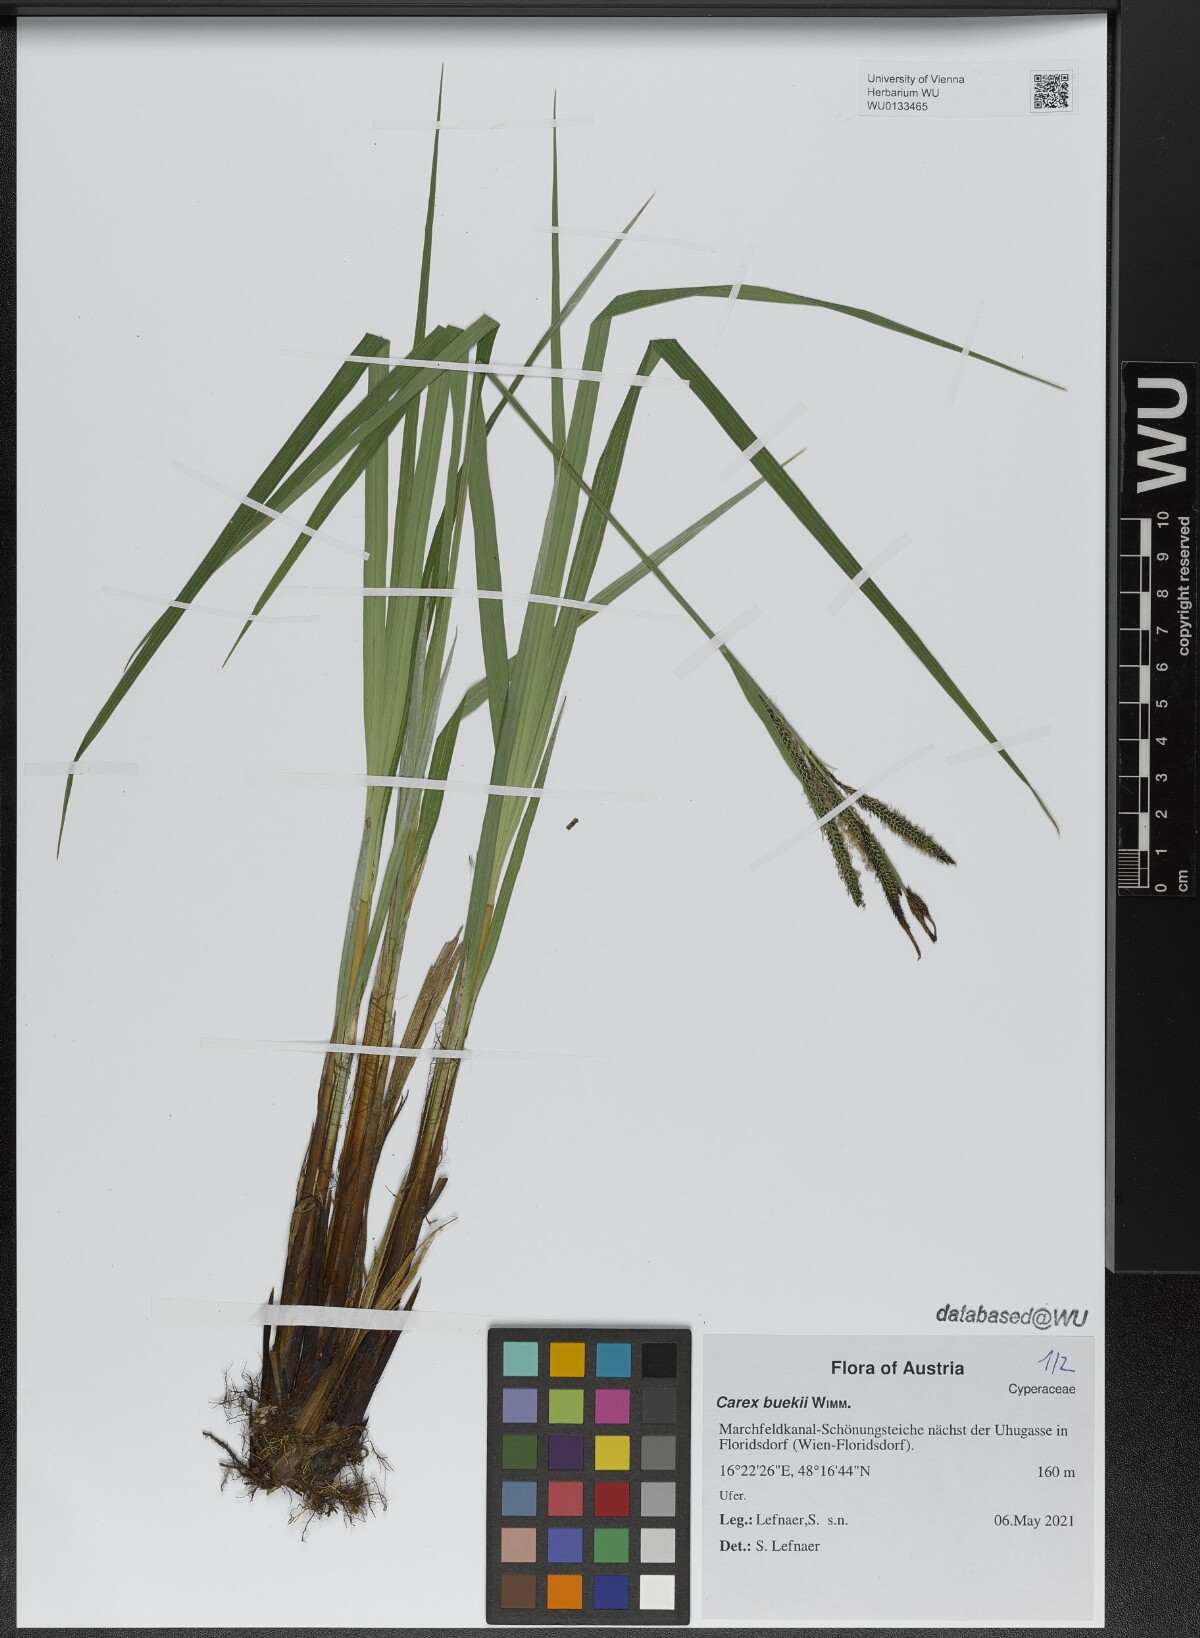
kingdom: Plantae
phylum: Tracheophyta
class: Liliopsida
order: Poales
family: Cyperaceae
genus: Carex
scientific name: Carex buekii
